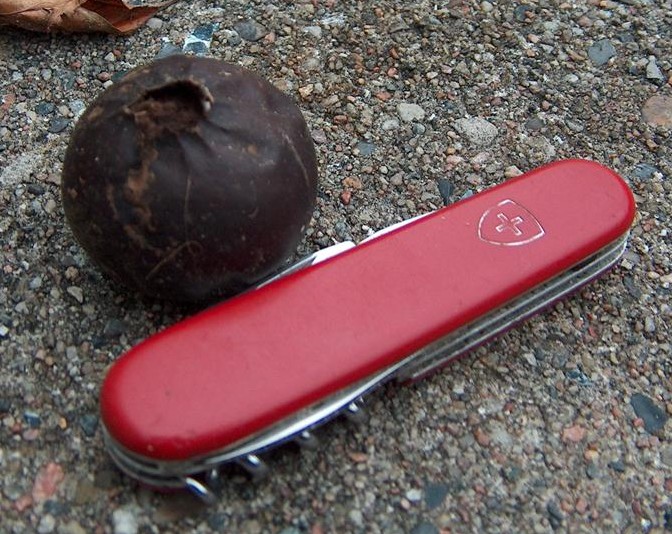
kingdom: Fungi
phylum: Basidiomycota
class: Agaricomycetes
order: Agaricales
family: Lycoperdaceae
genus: Bovista
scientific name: Bovista nigrescens
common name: sortagtig bovist
